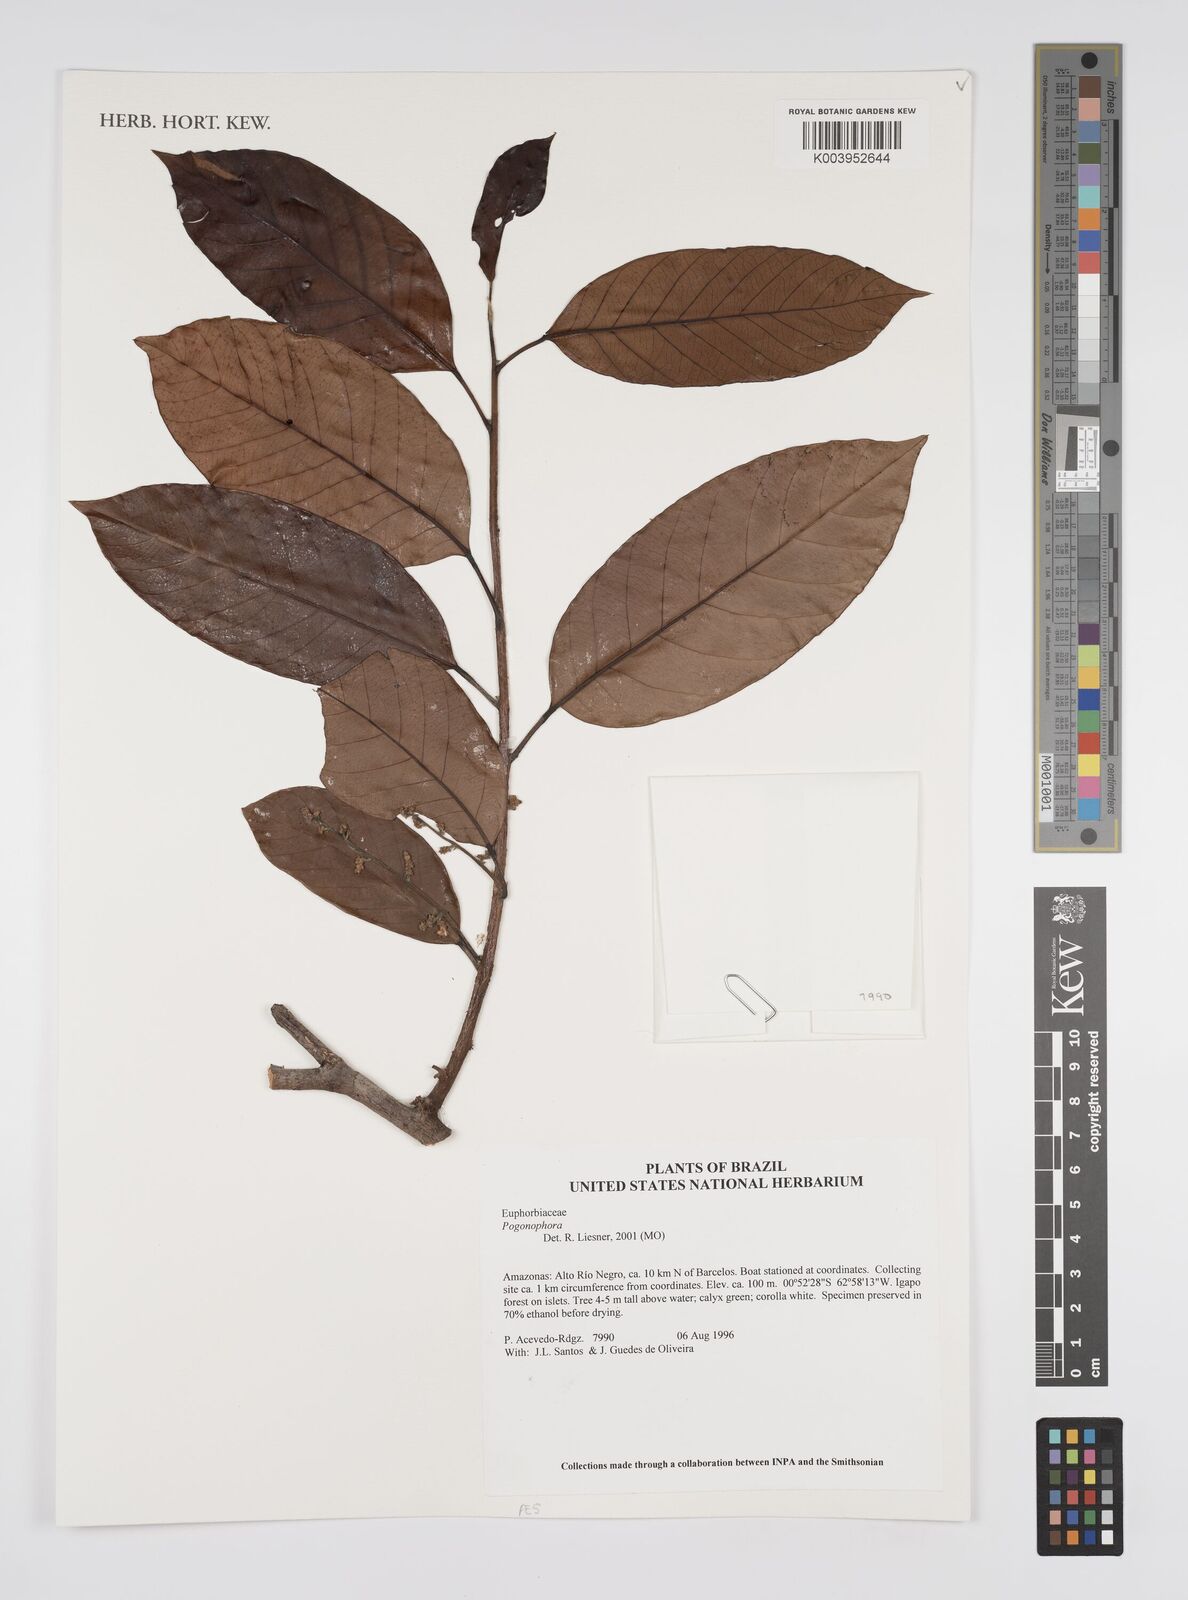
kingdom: Plantae
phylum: Tracheophyta
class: Magnoliopsida
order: Malpighiales
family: Peraceae
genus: Pogonophora
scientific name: Pogonophora
